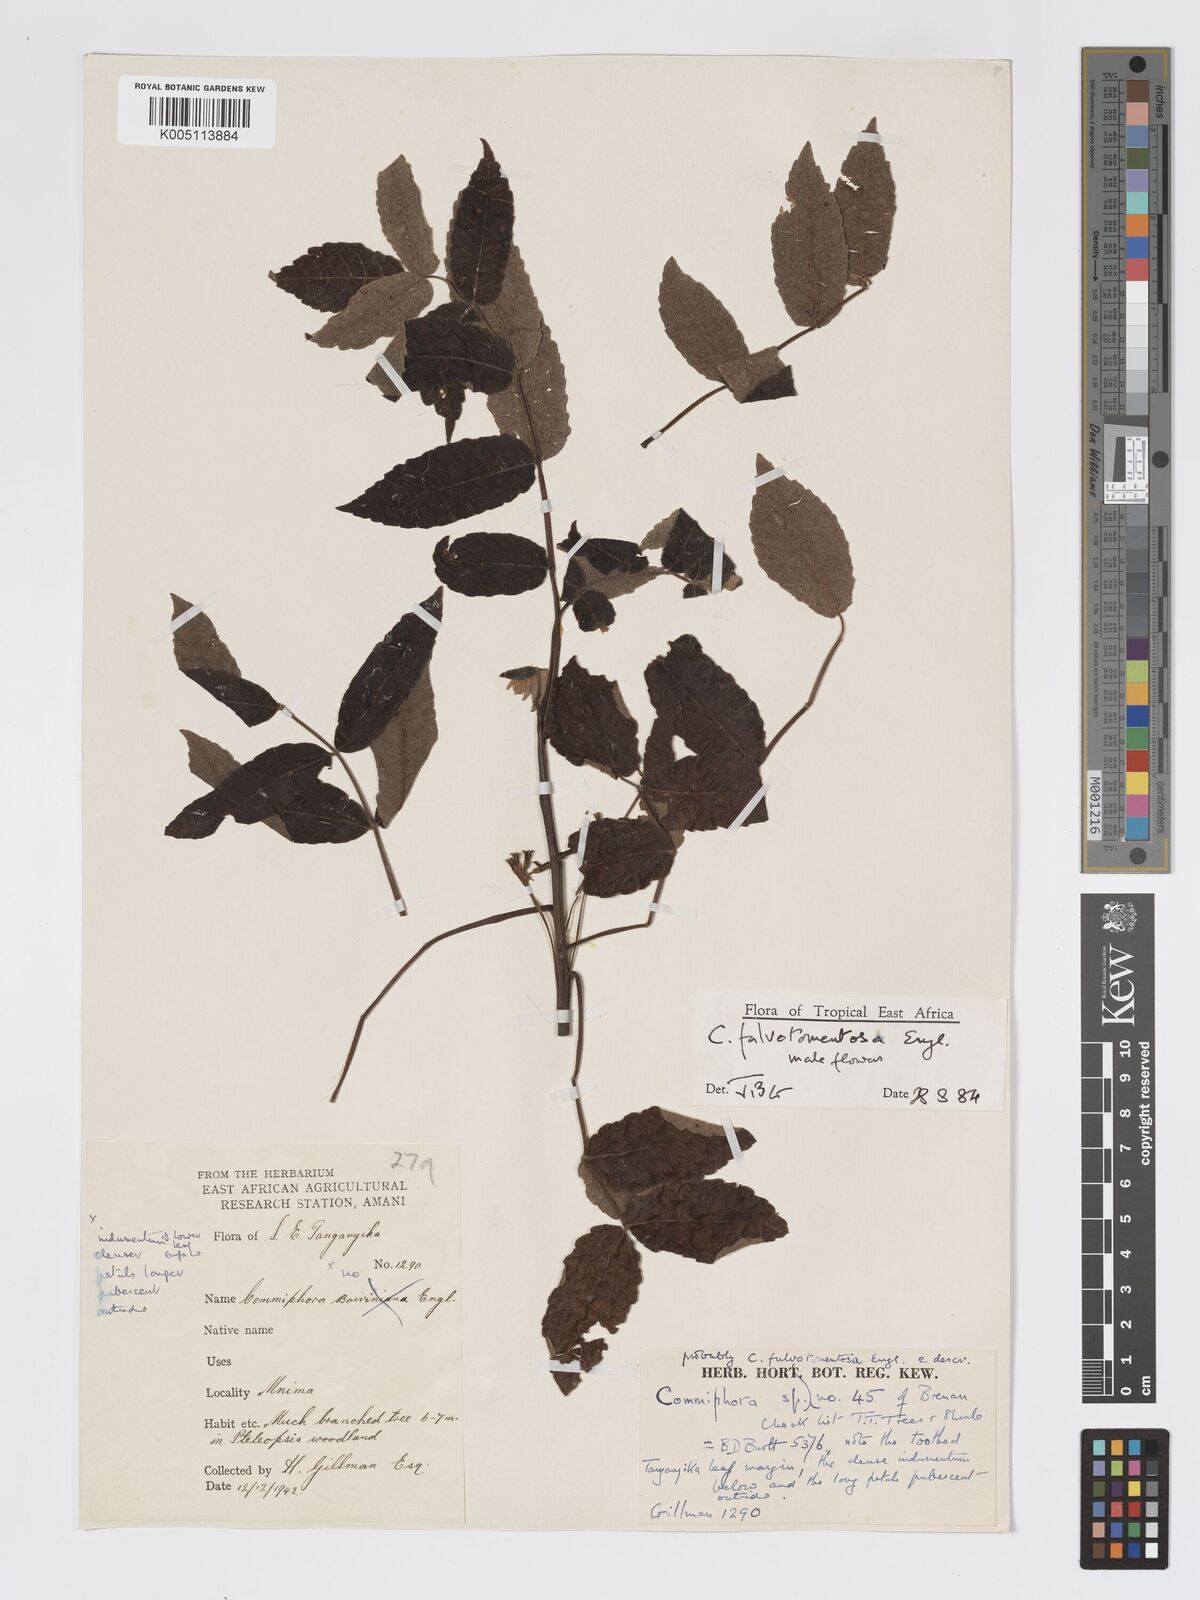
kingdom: Plantae
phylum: Tracheophyta
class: Magnoliopsida
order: Sapindales
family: Burseraceae
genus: Commiphora
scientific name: Commiphora fulvotomentosa
